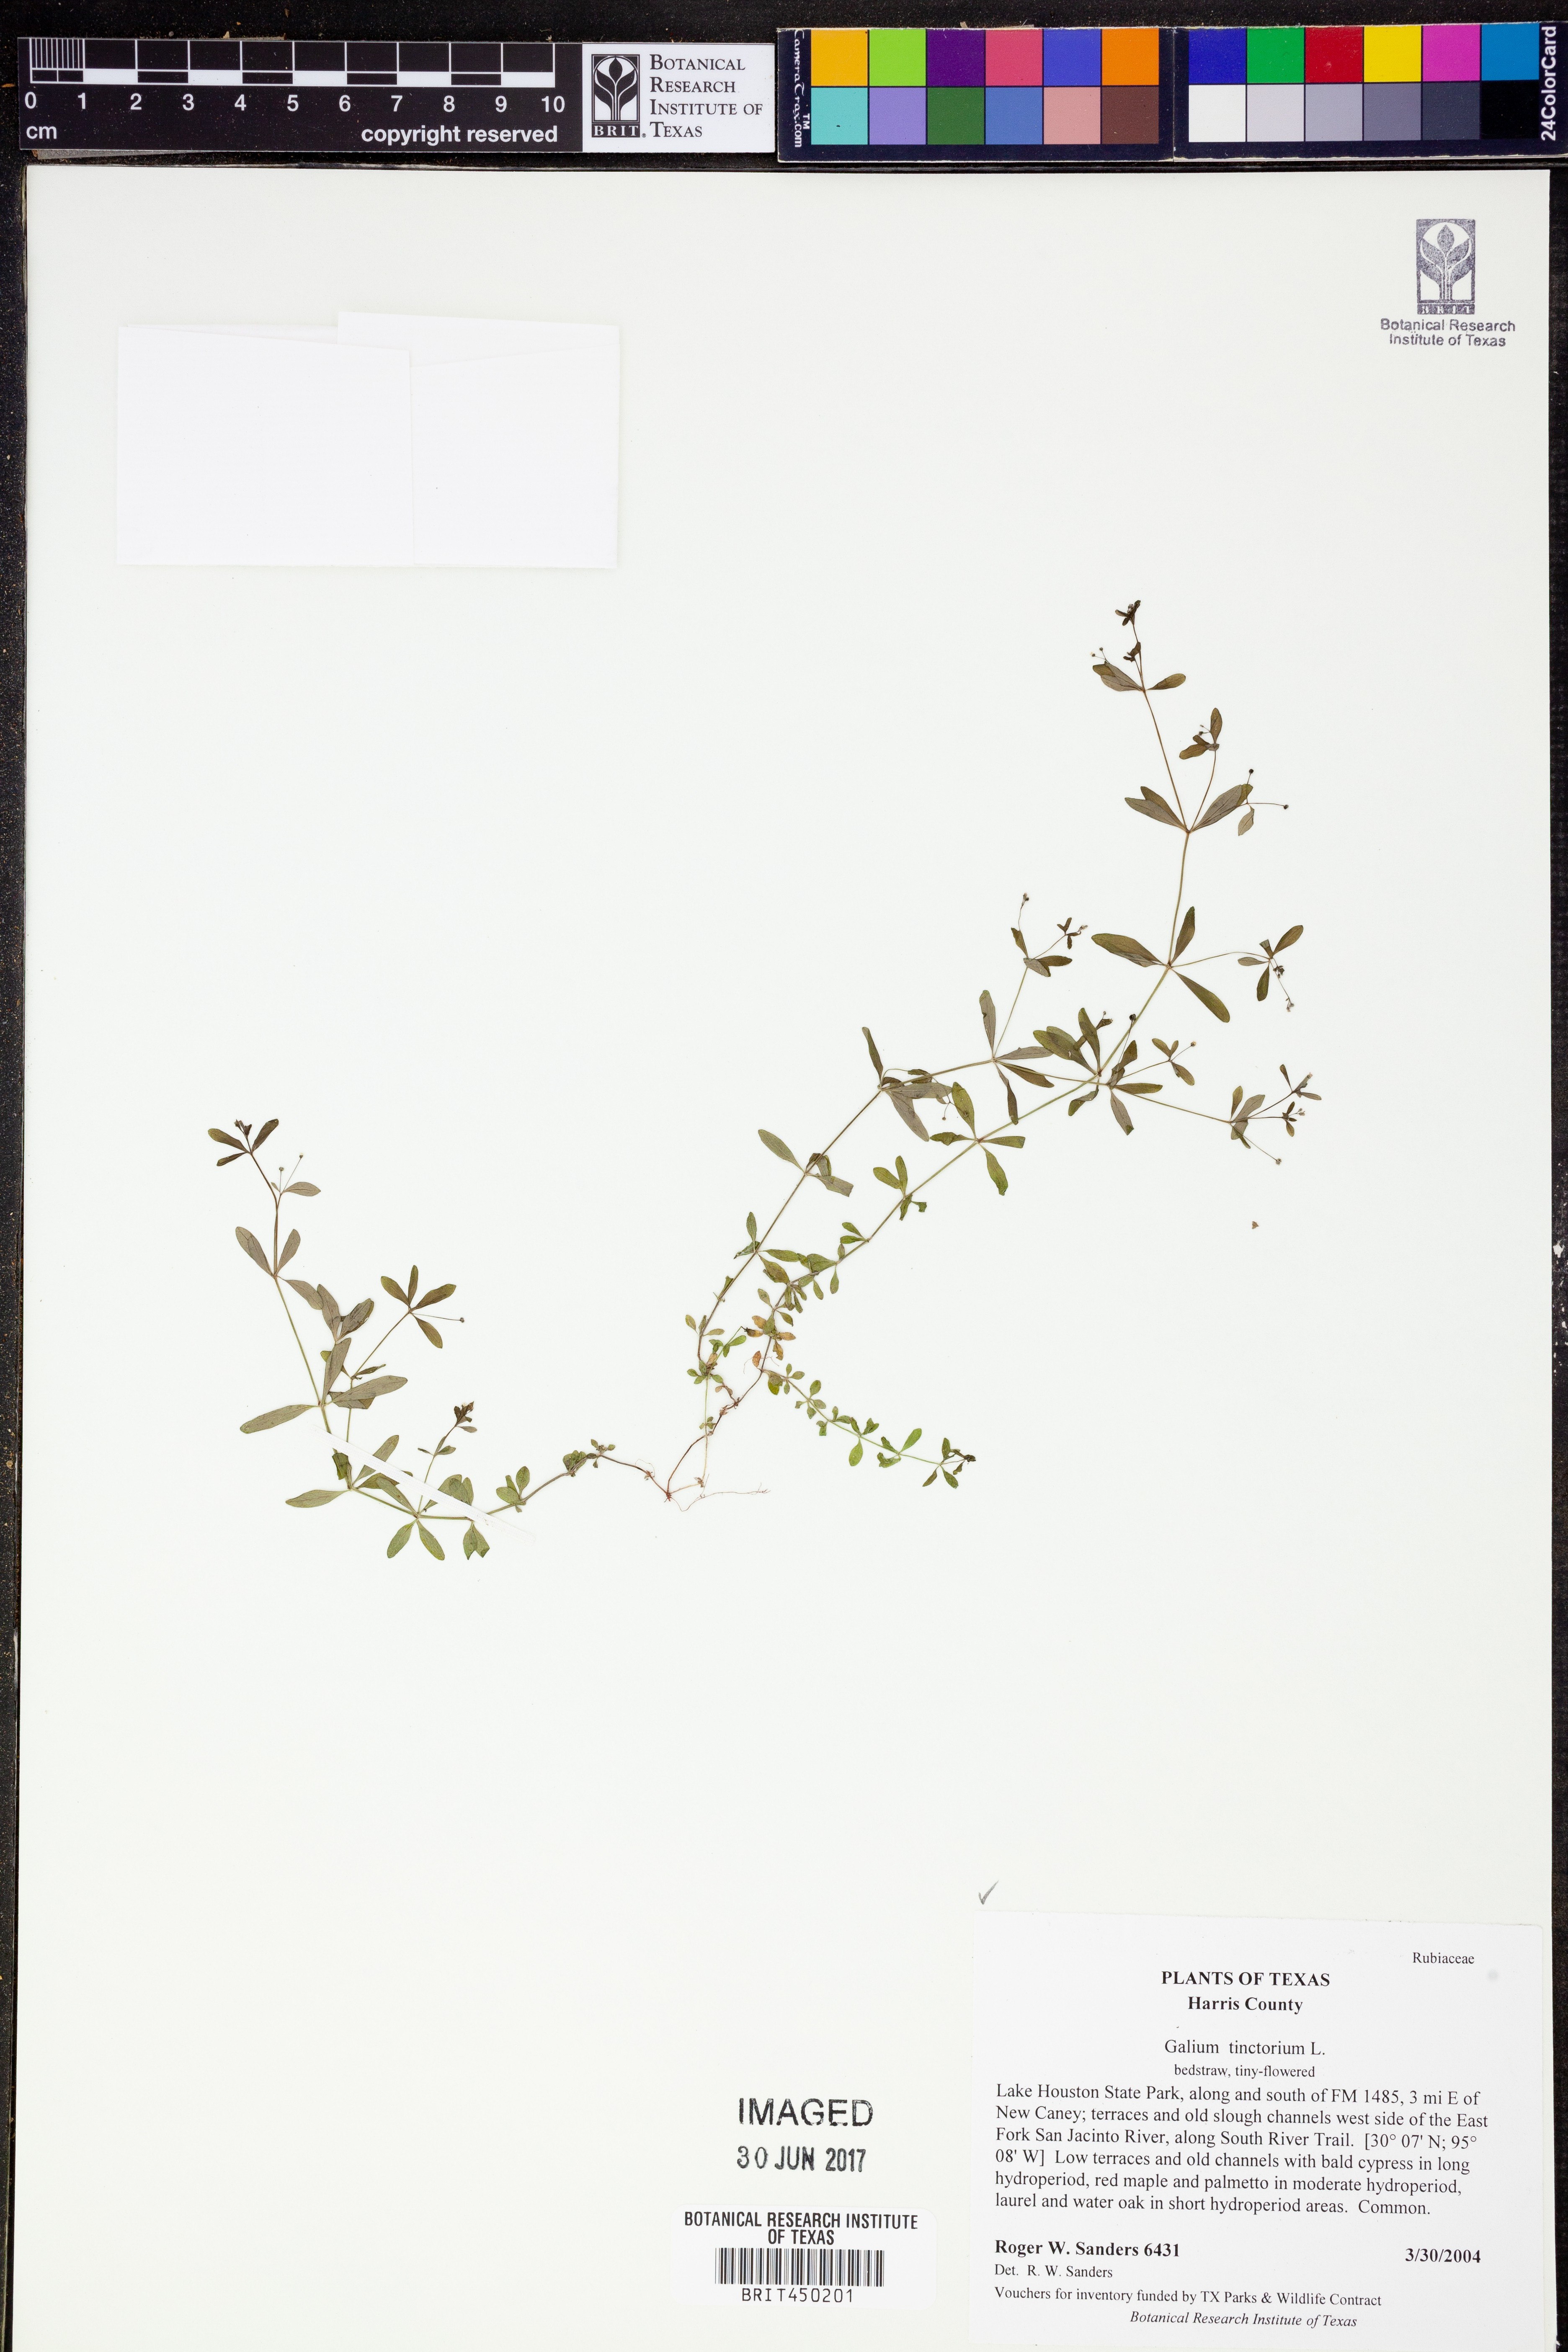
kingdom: Plantae
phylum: Tracheophyta
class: Magnoliopsida
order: Gentianales
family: Rubiaceae
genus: Asperula
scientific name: Asperula tinctoria
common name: Dyer's woodruff
